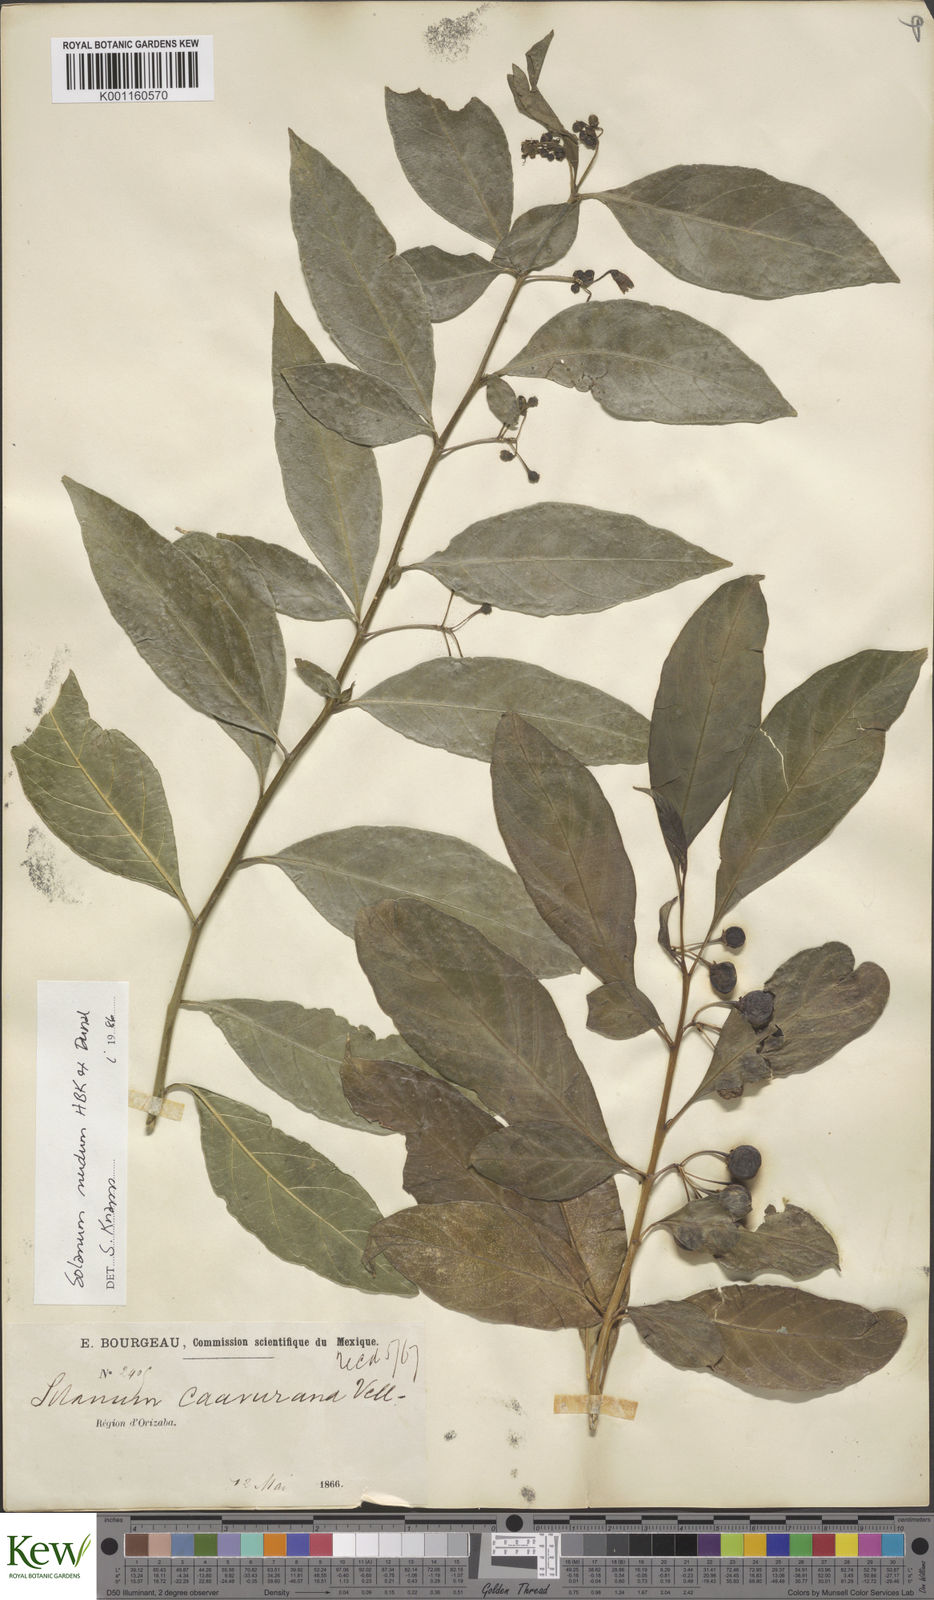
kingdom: Plantae
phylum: Tracheophyta
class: Magnoliopsida
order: Solanales
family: Solanaceae
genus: Solanum
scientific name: Solanum nudum
